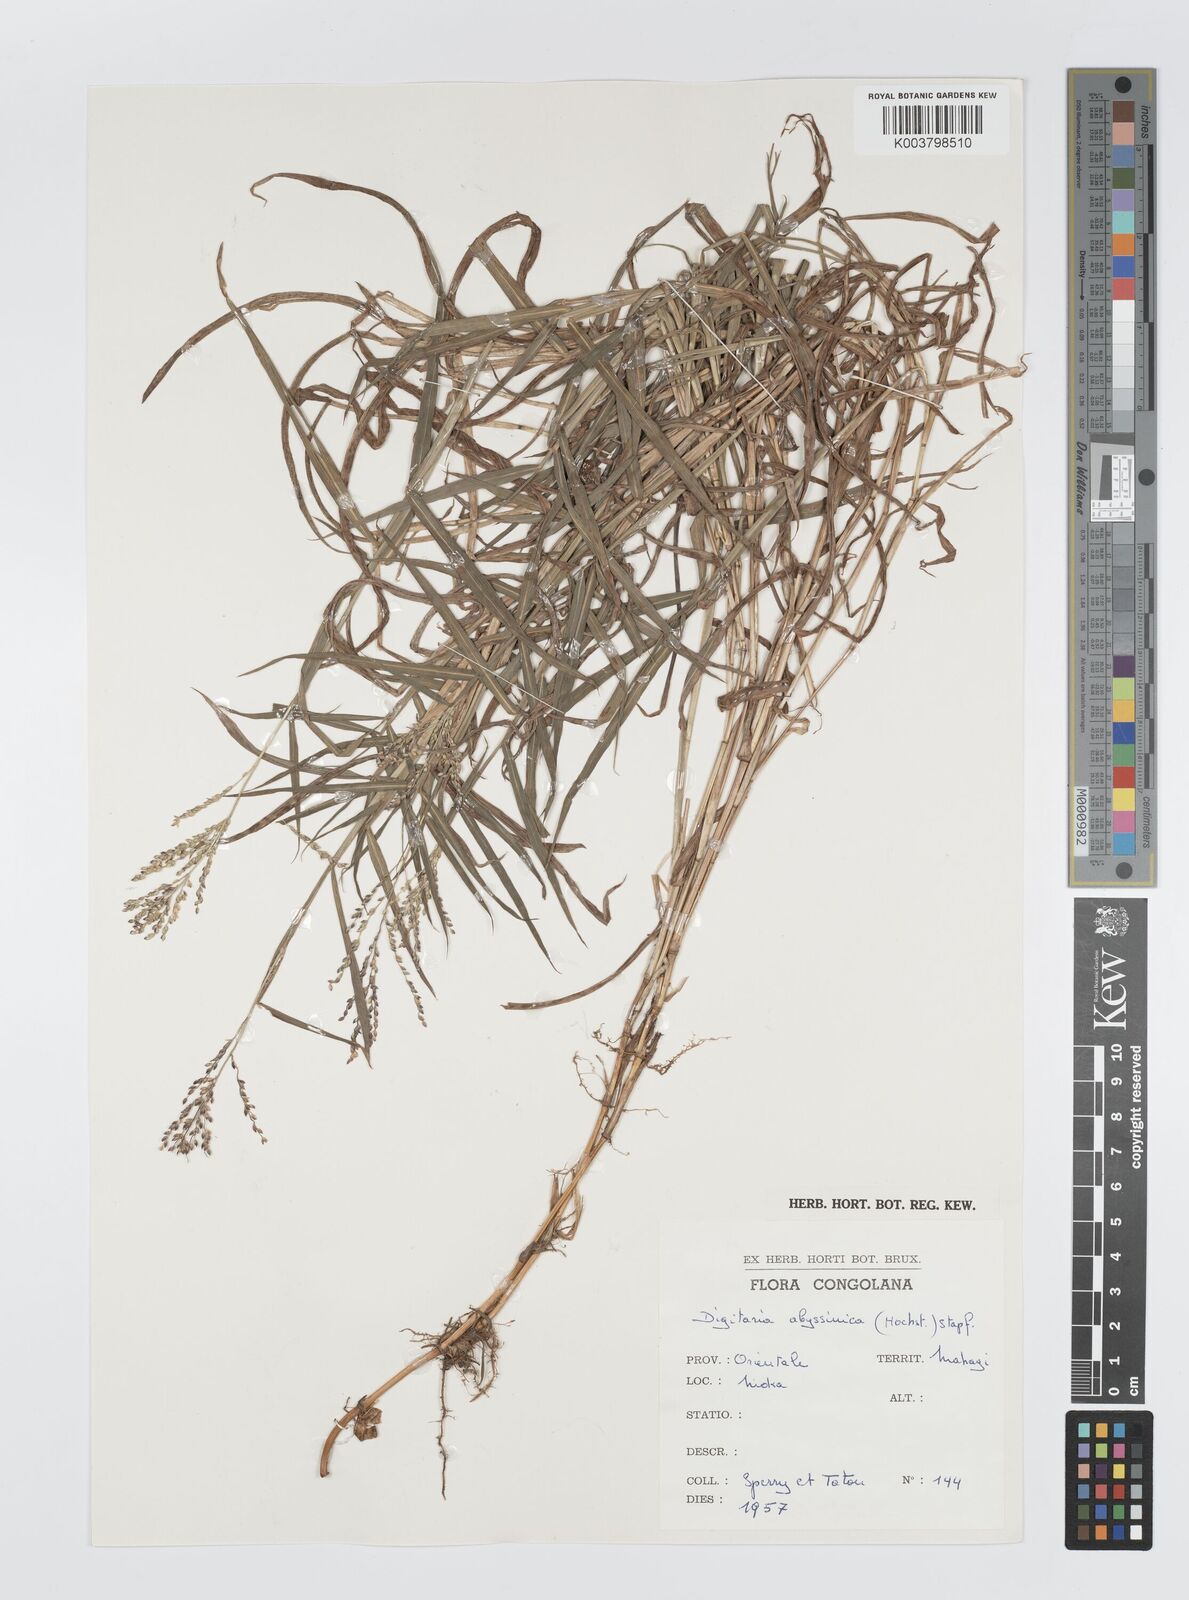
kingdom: Plantae
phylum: Tracheophyta
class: Liliopsida
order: Poales
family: Poaceae
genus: Digitaria
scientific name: Digitaria abyssinica
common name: African couchgrass
